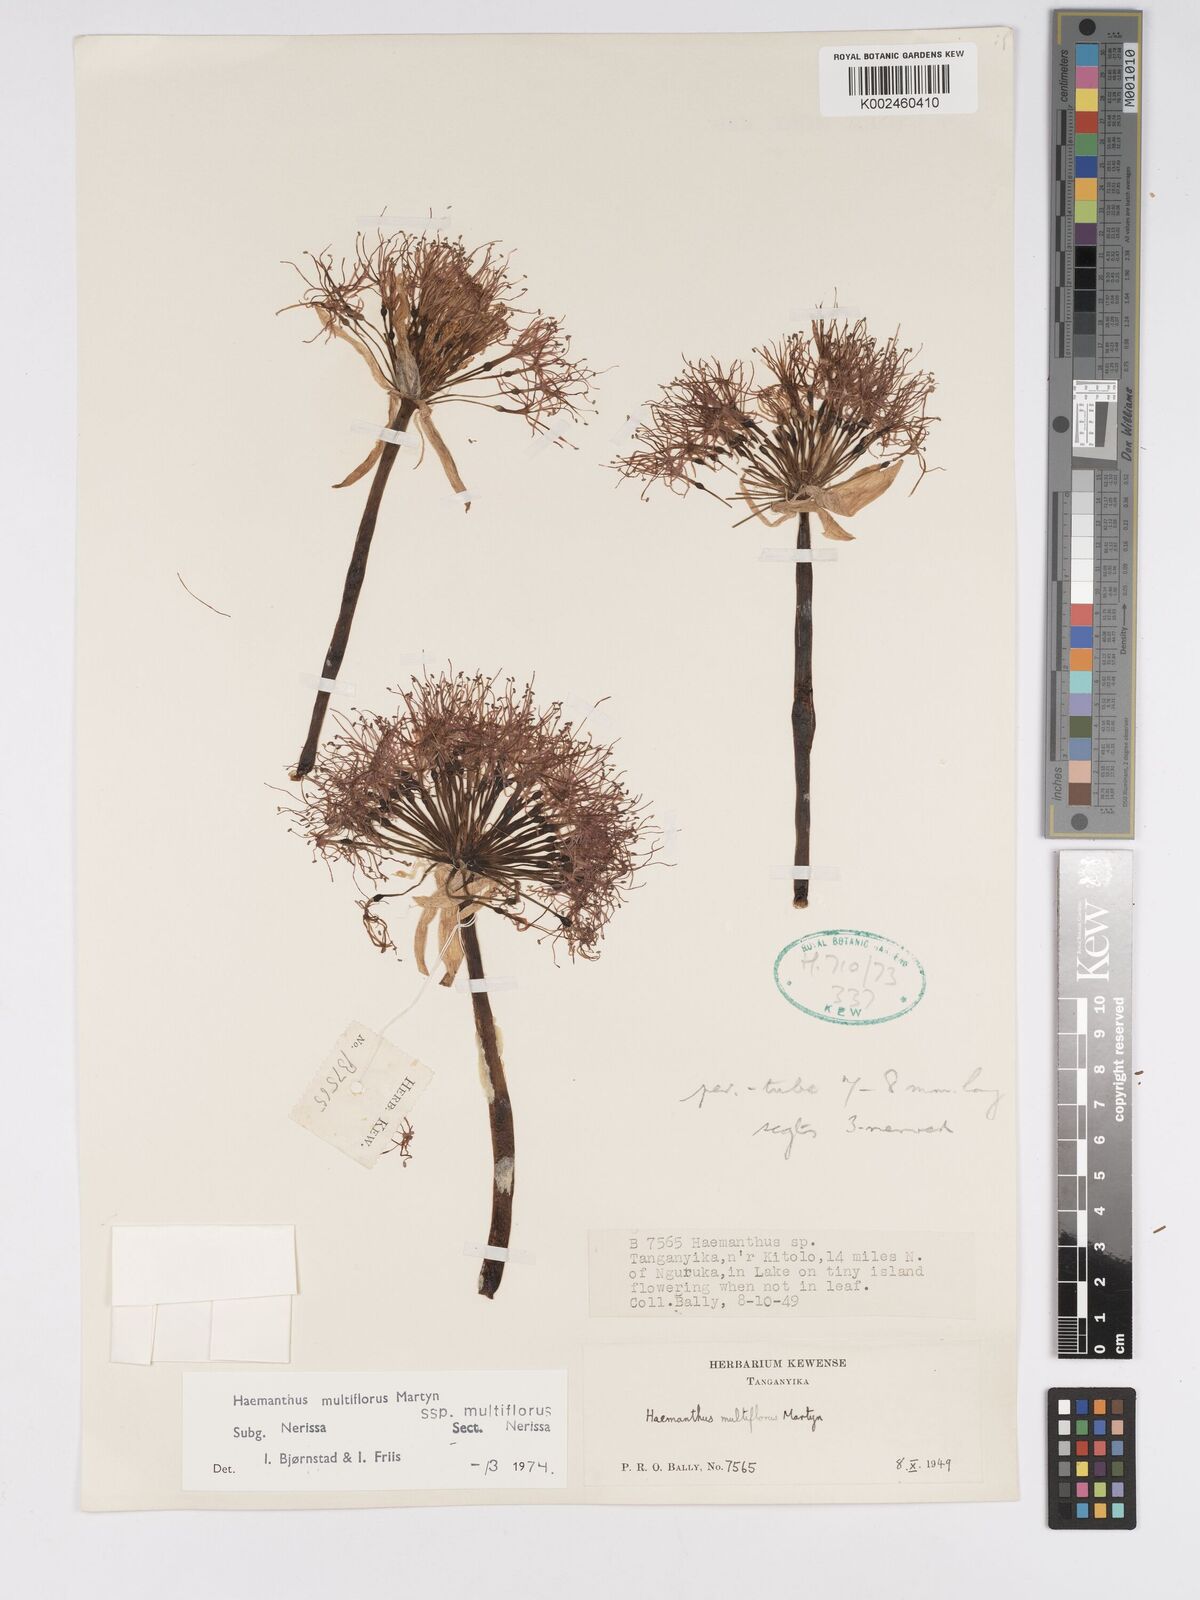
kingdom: Plantae
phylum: Tracheophyta
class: Liliopsida
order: Asparagales
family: Amaryllidaceae
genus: Scadoxus
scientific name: Scadoxus multiflorus
